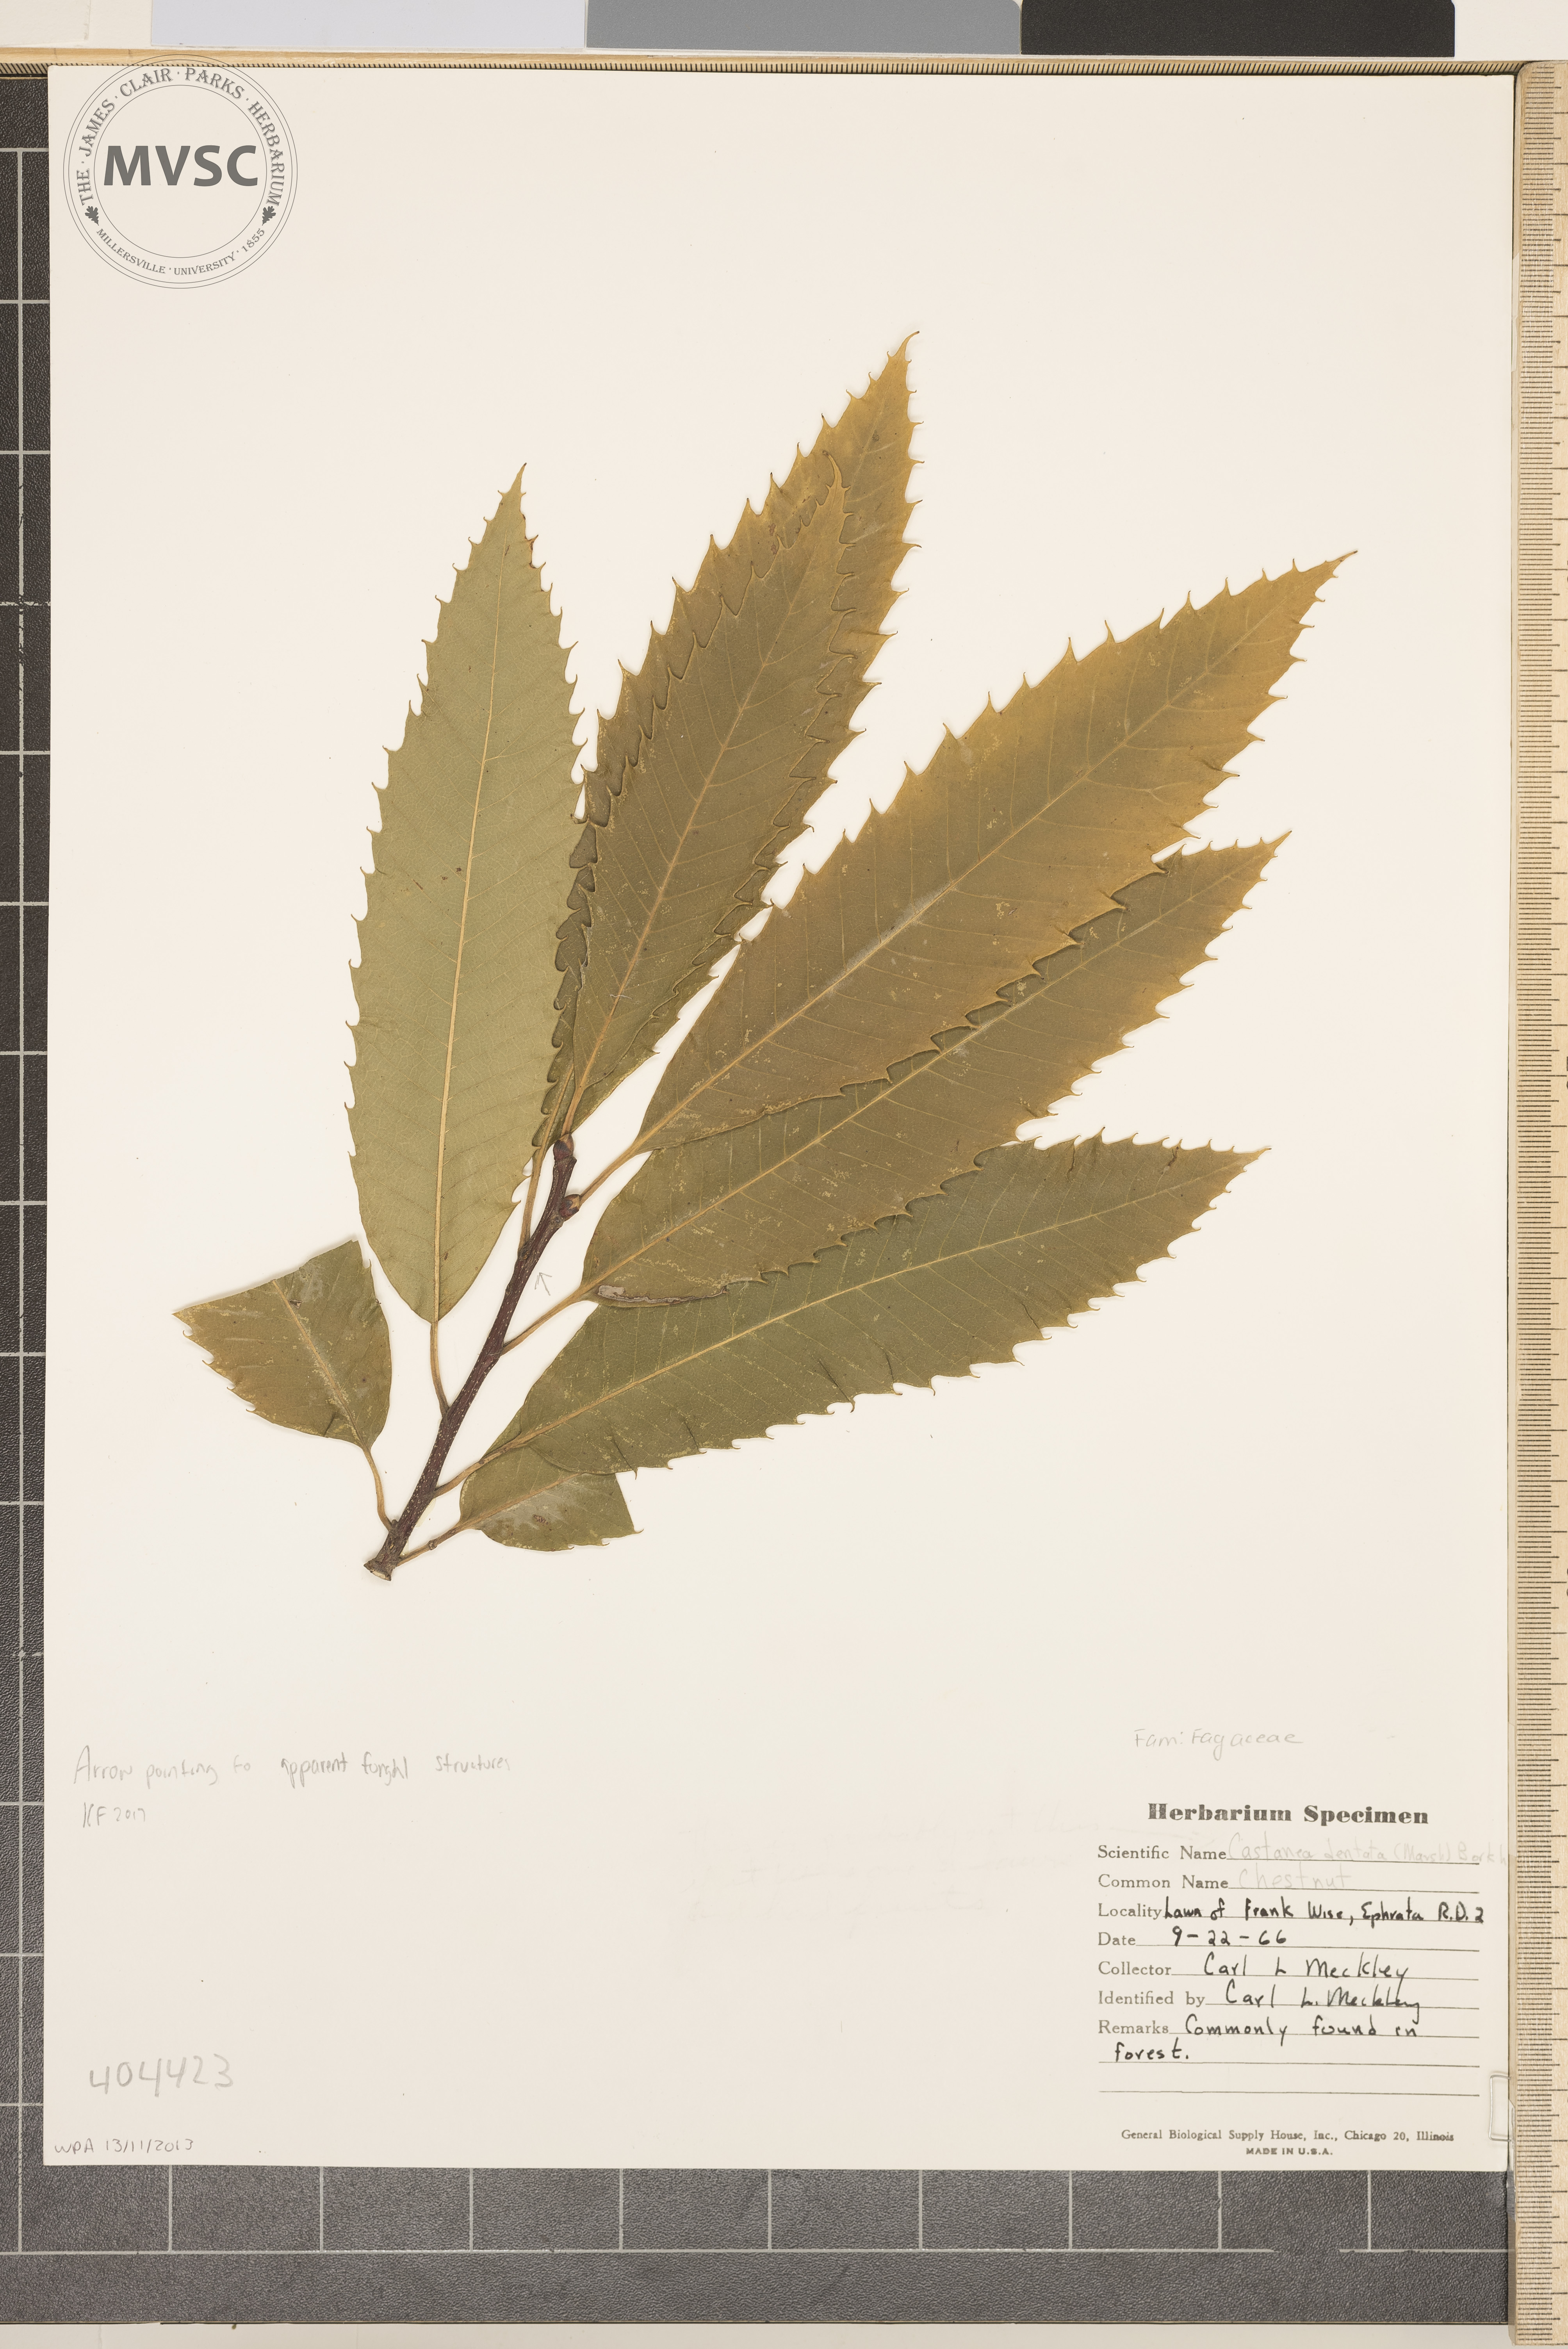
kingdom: Plantae
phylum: Tracheophyta
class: Magnoliopsida
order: Fagales
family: Fagaceae
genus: Castanea
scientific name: Castanea dentata
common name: Chestnut
